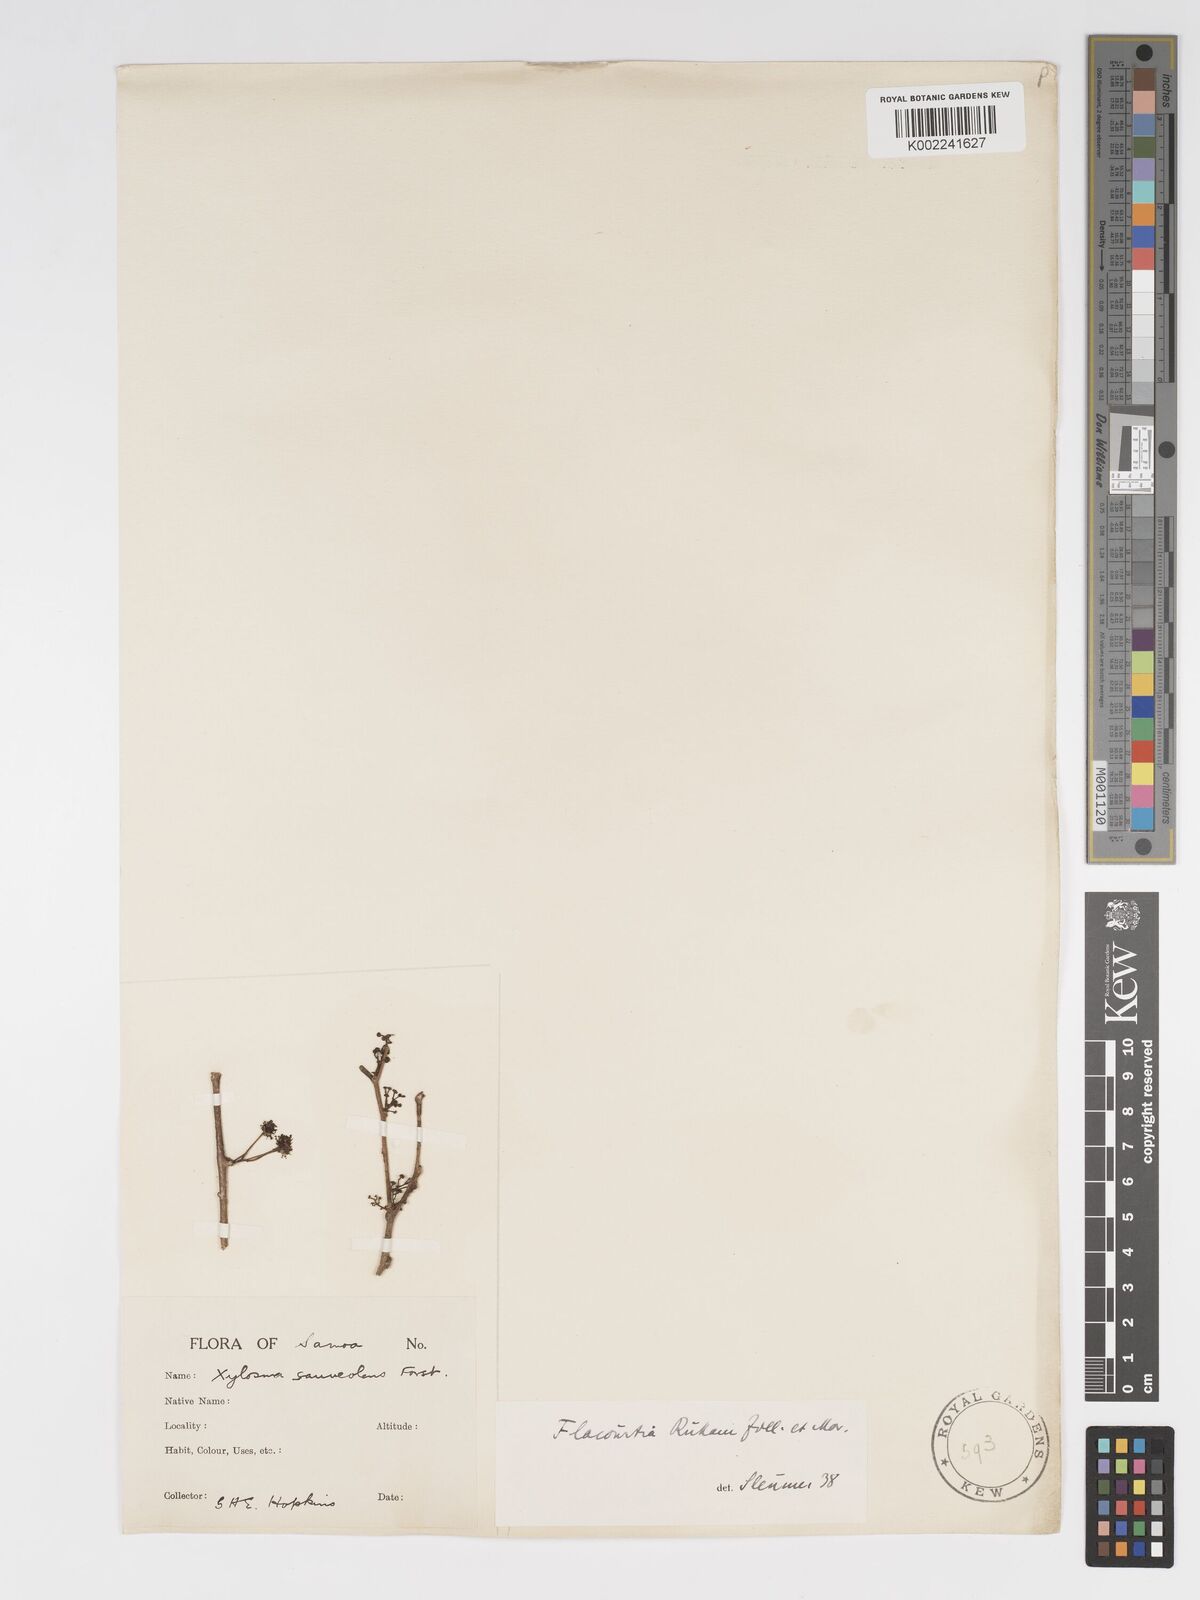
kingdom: Plantae
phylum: Tracheophyta
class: Magnoliopsida
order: Malpighiales
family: Salicaceae
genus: Flacourtia
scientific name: Flacourtia rukam
